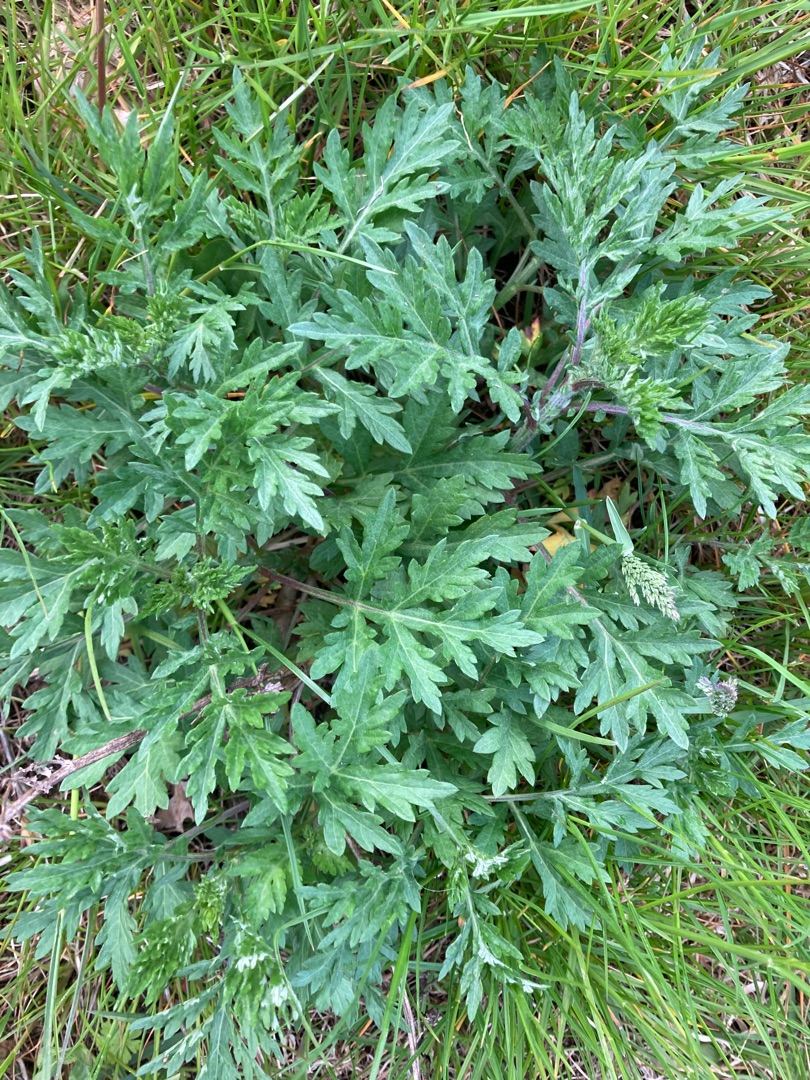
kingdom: Plantae
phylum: Tracheophyta
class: Magnoliopsida
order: Asterales
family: Asteraceae
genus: Artemisia
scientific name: Artemisia vulgaris
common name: Grå-bynke
